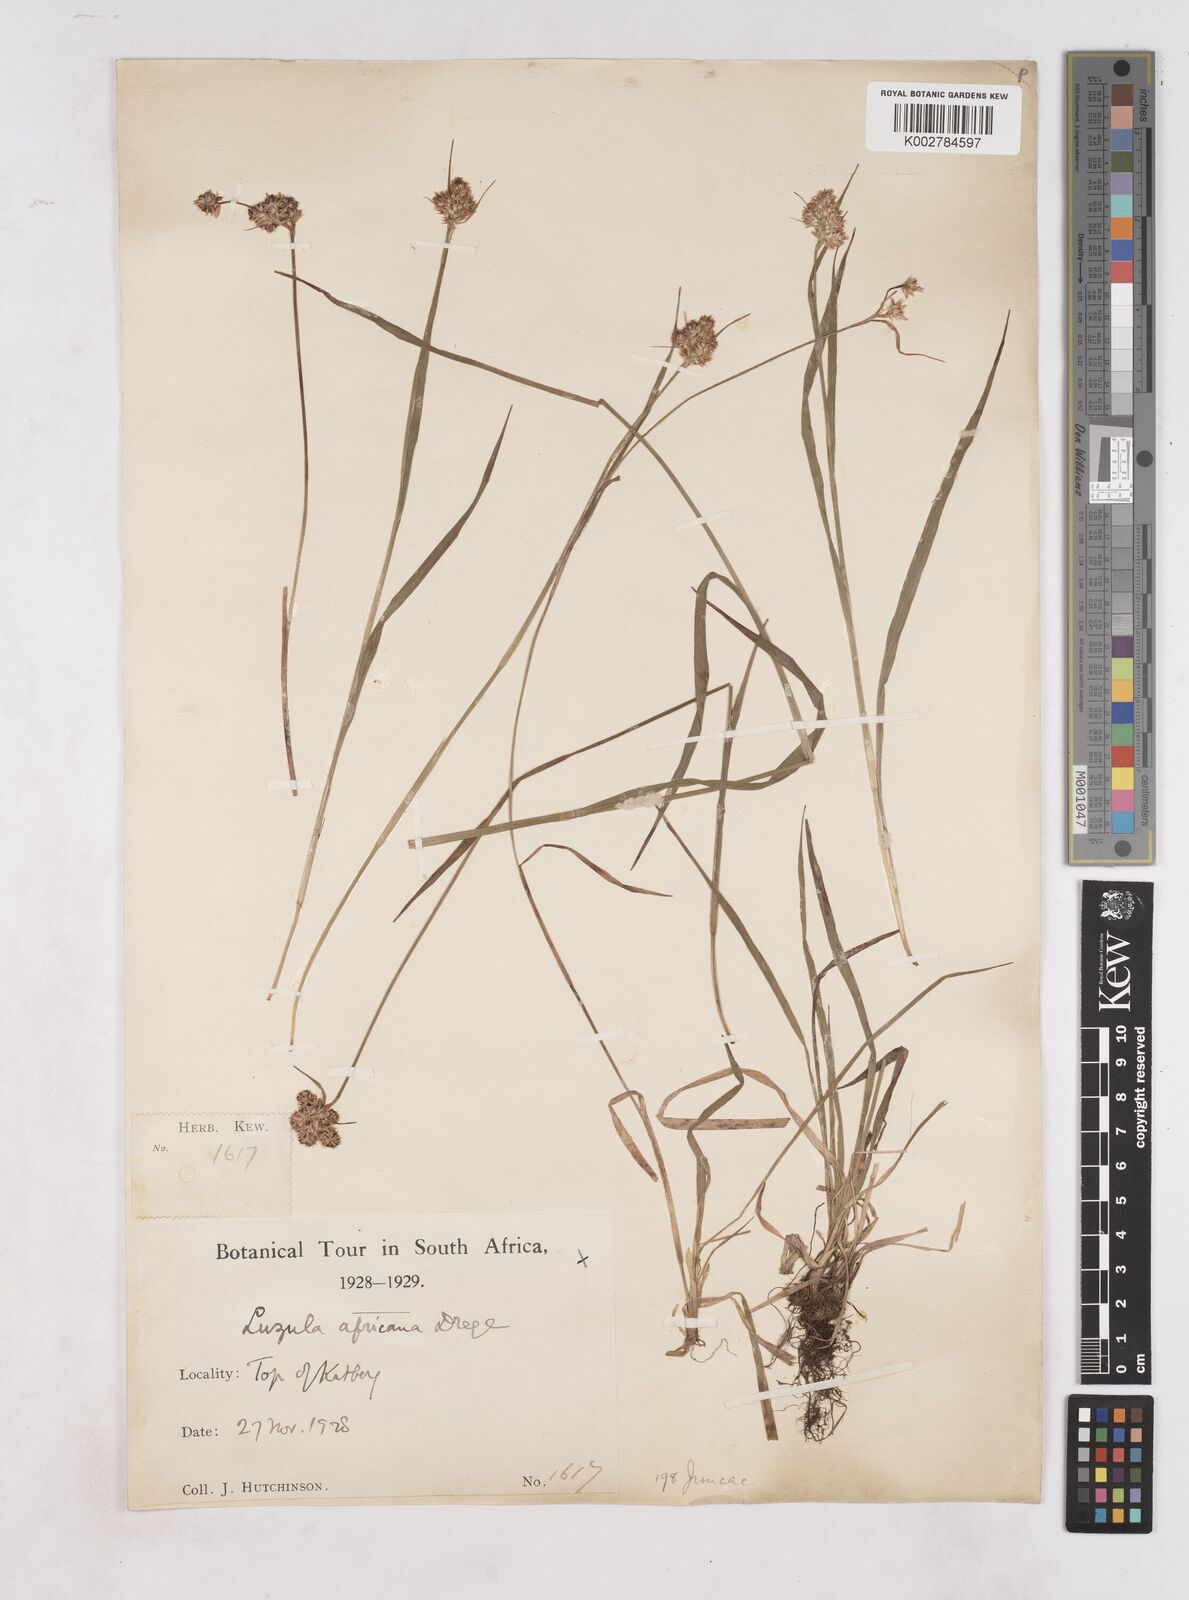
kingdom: Plantae
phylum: Tracheophyta
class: Liliopsida
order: Poales
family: Juncaceae
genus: Luzula
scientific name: Luzula africana
